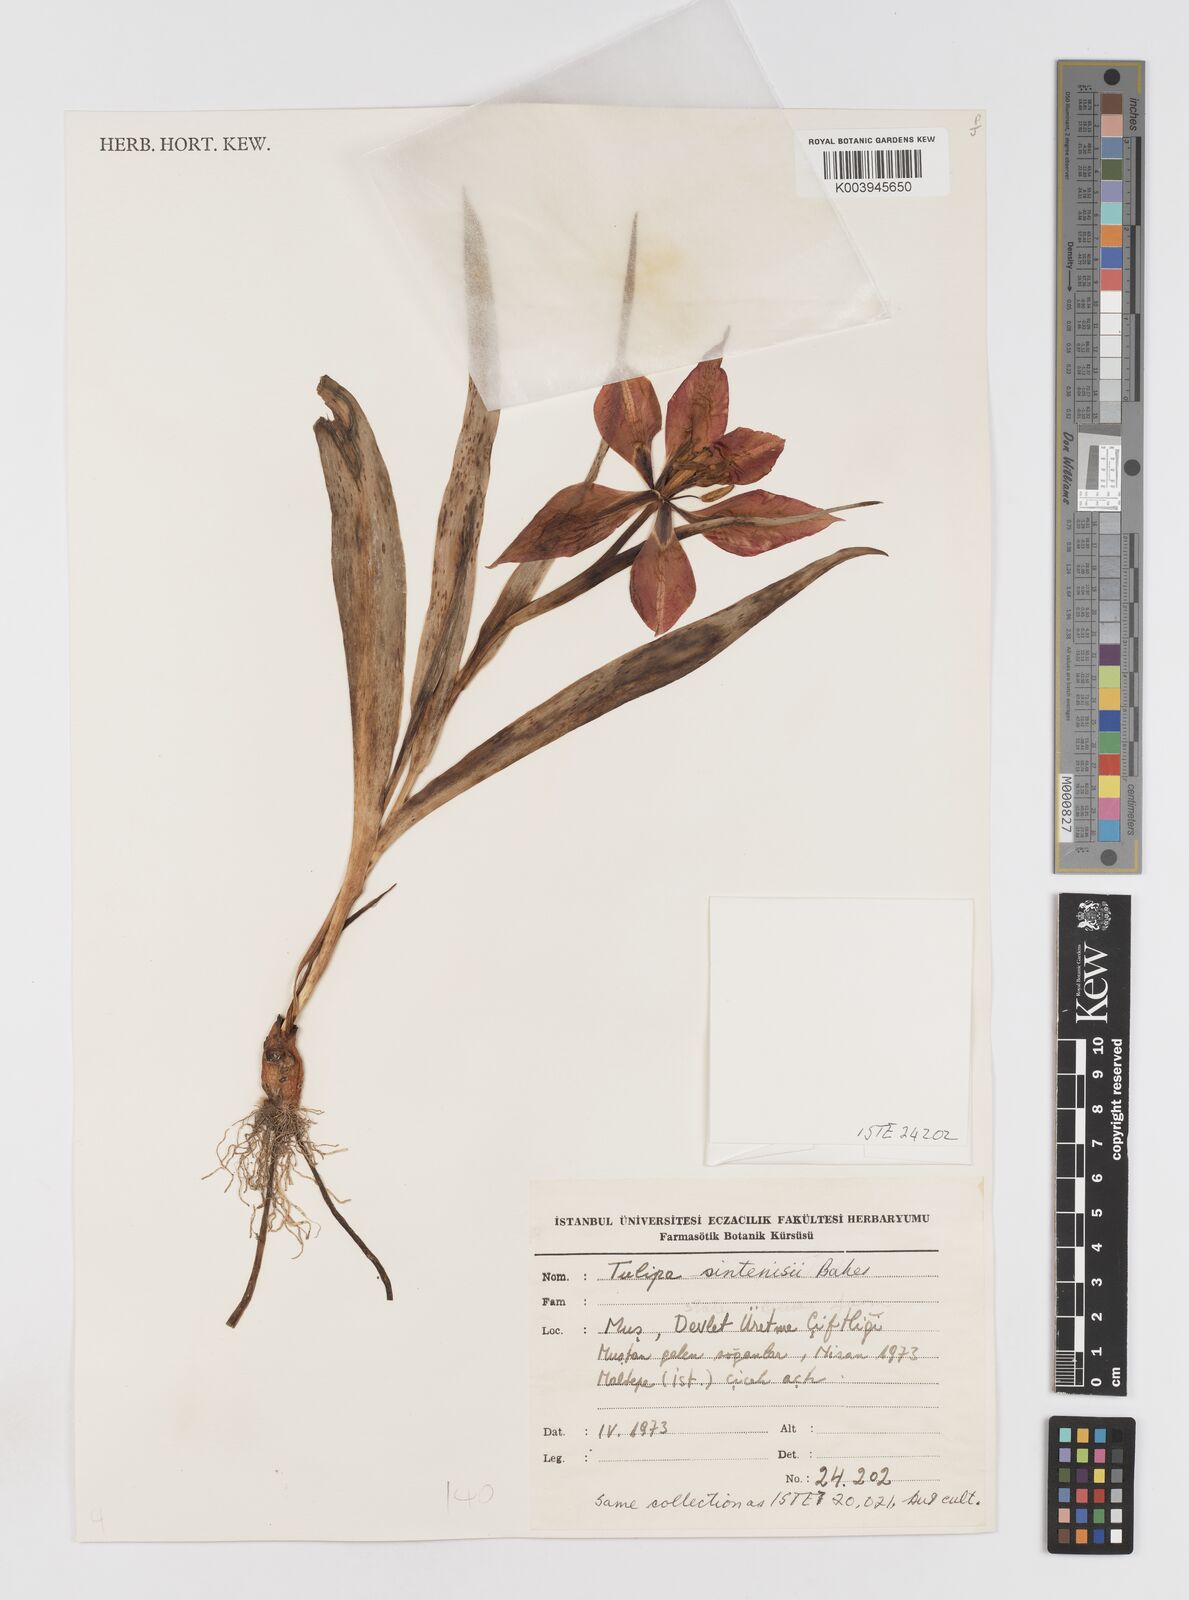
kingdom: Plantae
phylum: Tracheophyta
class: Liliopsida
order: Liliales
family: Liliaceae
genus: Tulipa
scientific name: Tulipa aleppensis
